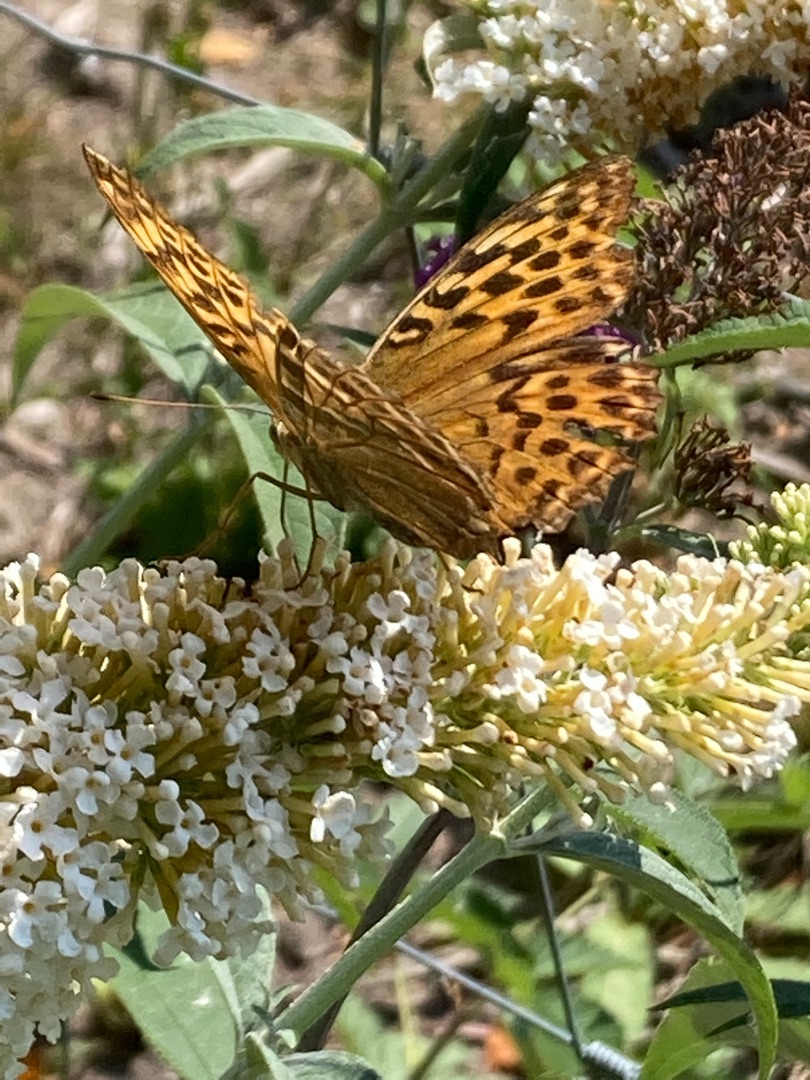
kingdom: Animalia
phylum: Arthropoda
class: Insecta
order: Lepidoptera
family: Nymphalidae
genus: Argynnis
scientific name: Argynnis paphia
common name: Kejserkåbe
